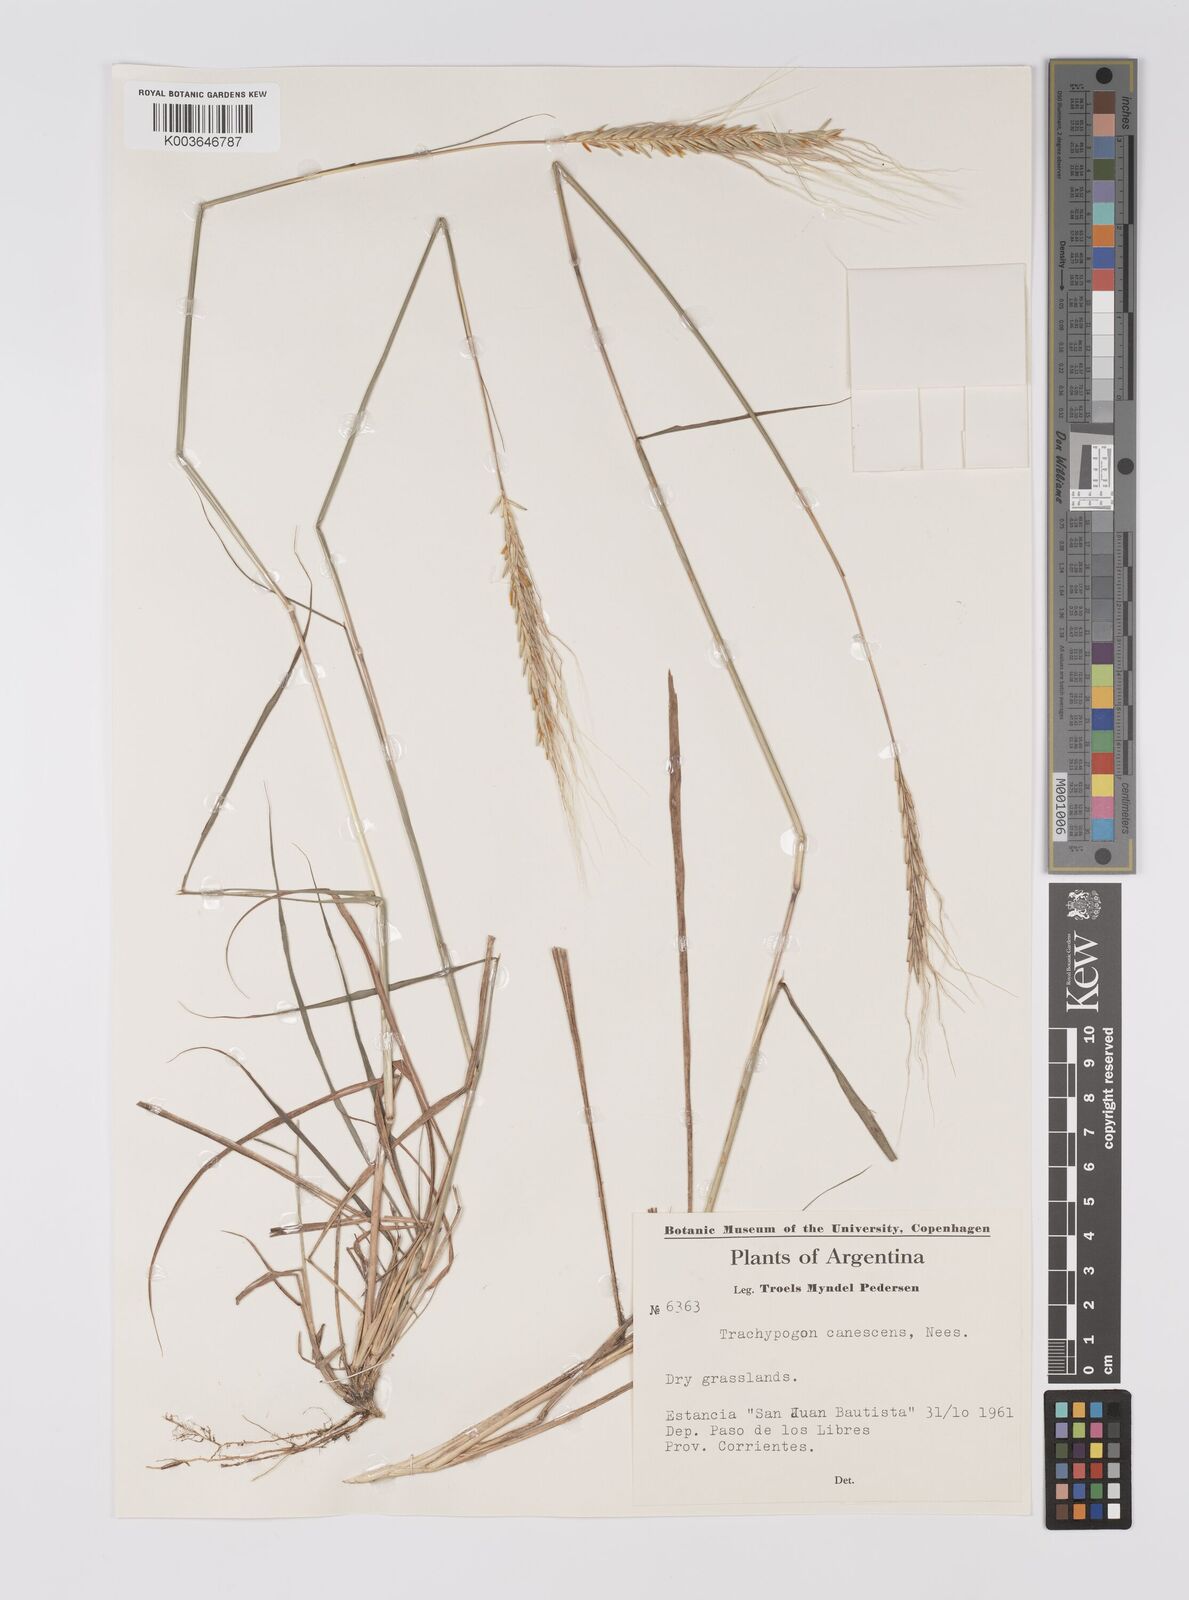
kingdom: Plantae
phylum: Tracheophyta
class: Liliopsida
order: Poales
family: Poaceae
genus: Trachypogon
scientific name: Trachypogon spicatus
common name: Crinkle-awn
